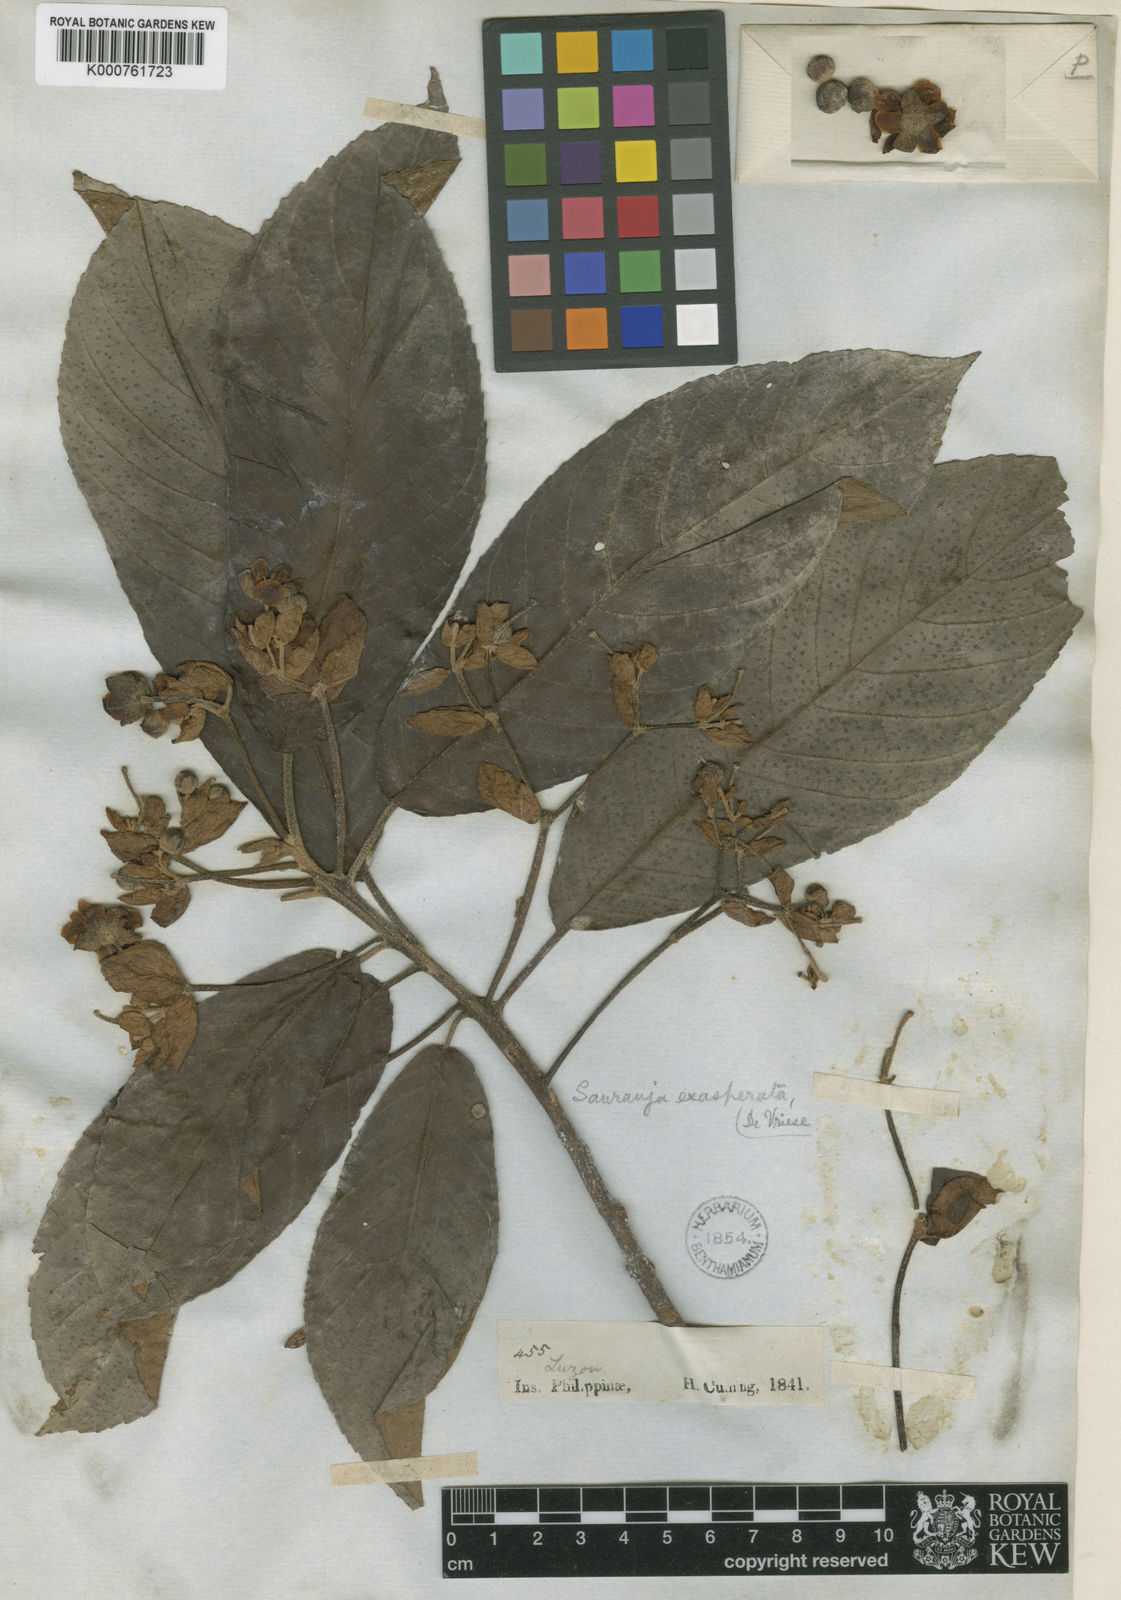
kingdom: Plantae
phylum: Tracheophyta
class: Magnoliopsida
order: Ericales
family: Actinidiaceae
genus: Saurauia
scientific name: Saurauia latibractea
